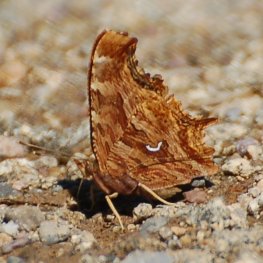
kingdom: Animalia
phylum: Arthropoda
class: Insecta
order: Lepidoptera
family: Nymphalidae
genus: Polygonia
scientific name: Polygonia satyrus
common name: Satyr Comma
